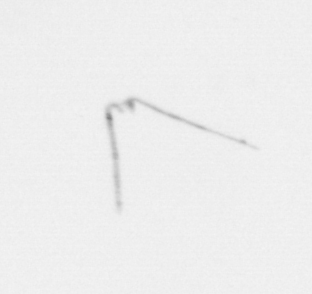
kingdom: Animalia
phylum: Echinodermata
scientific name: Echinodermata
